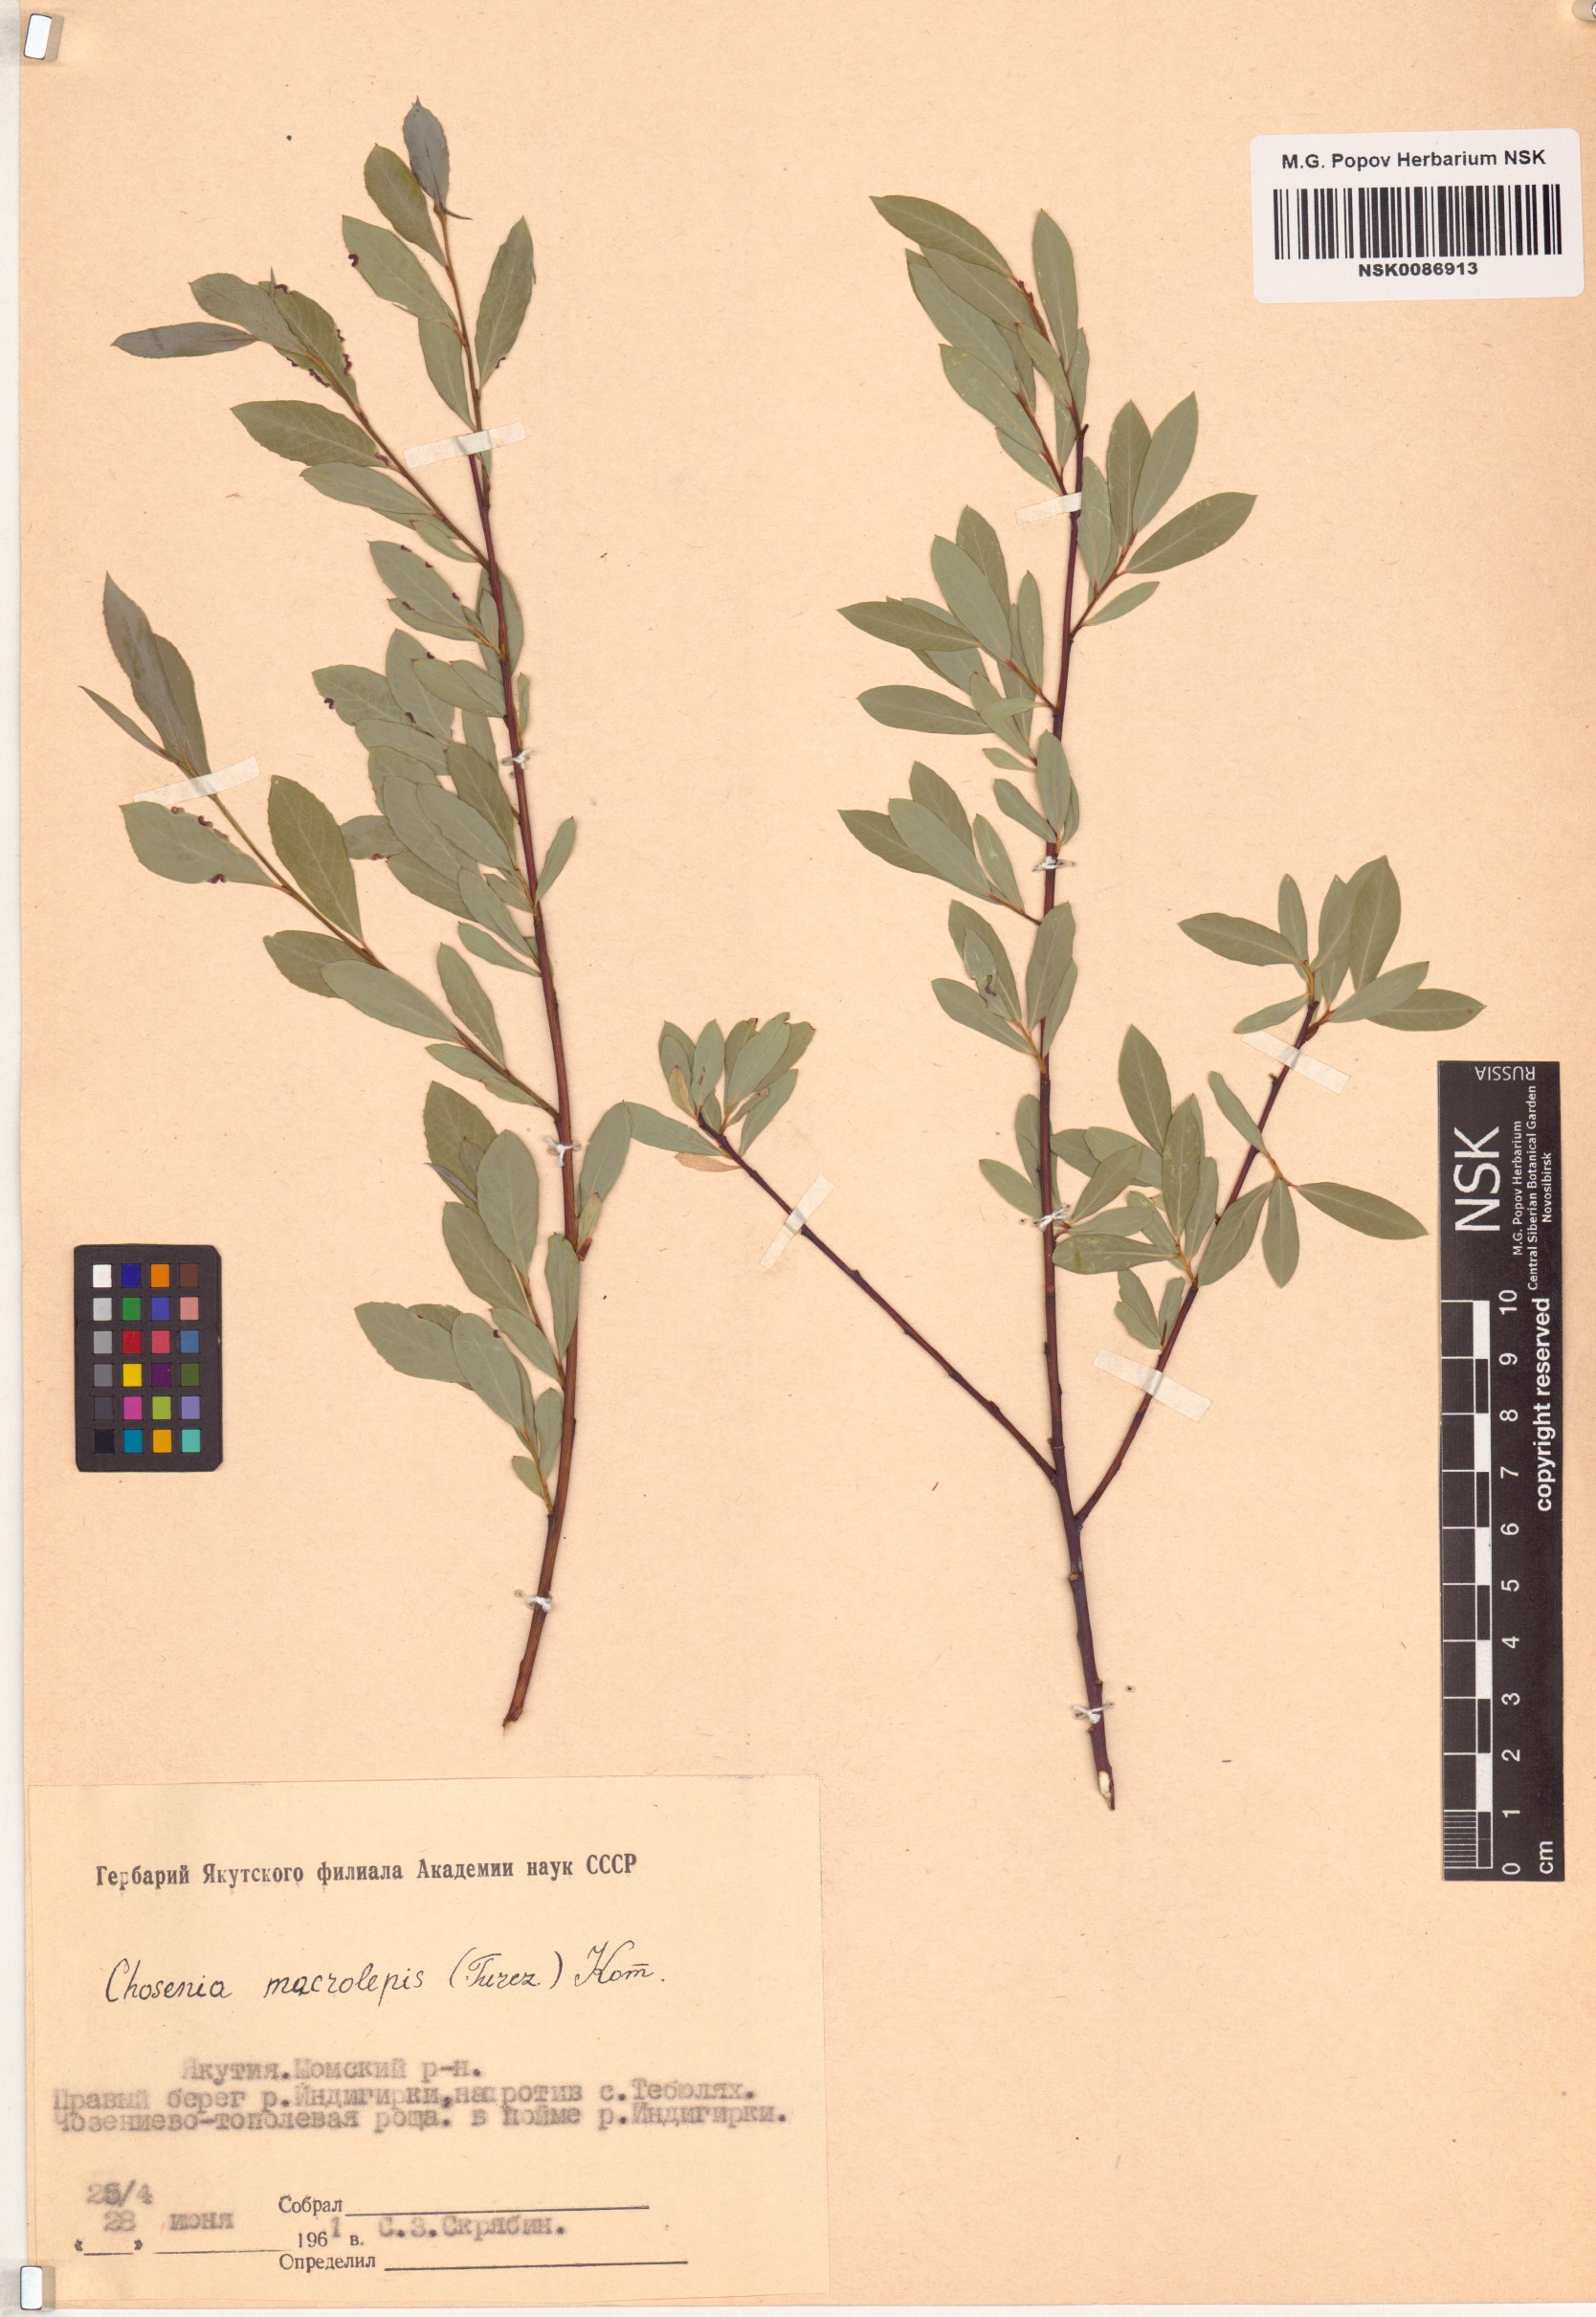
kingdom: Plantae
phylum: Tracheophyta
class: Magnoliopsida
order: Malpighiales
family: Salicaceae
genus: Chosenia
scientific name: Chosenia arbutifolia
